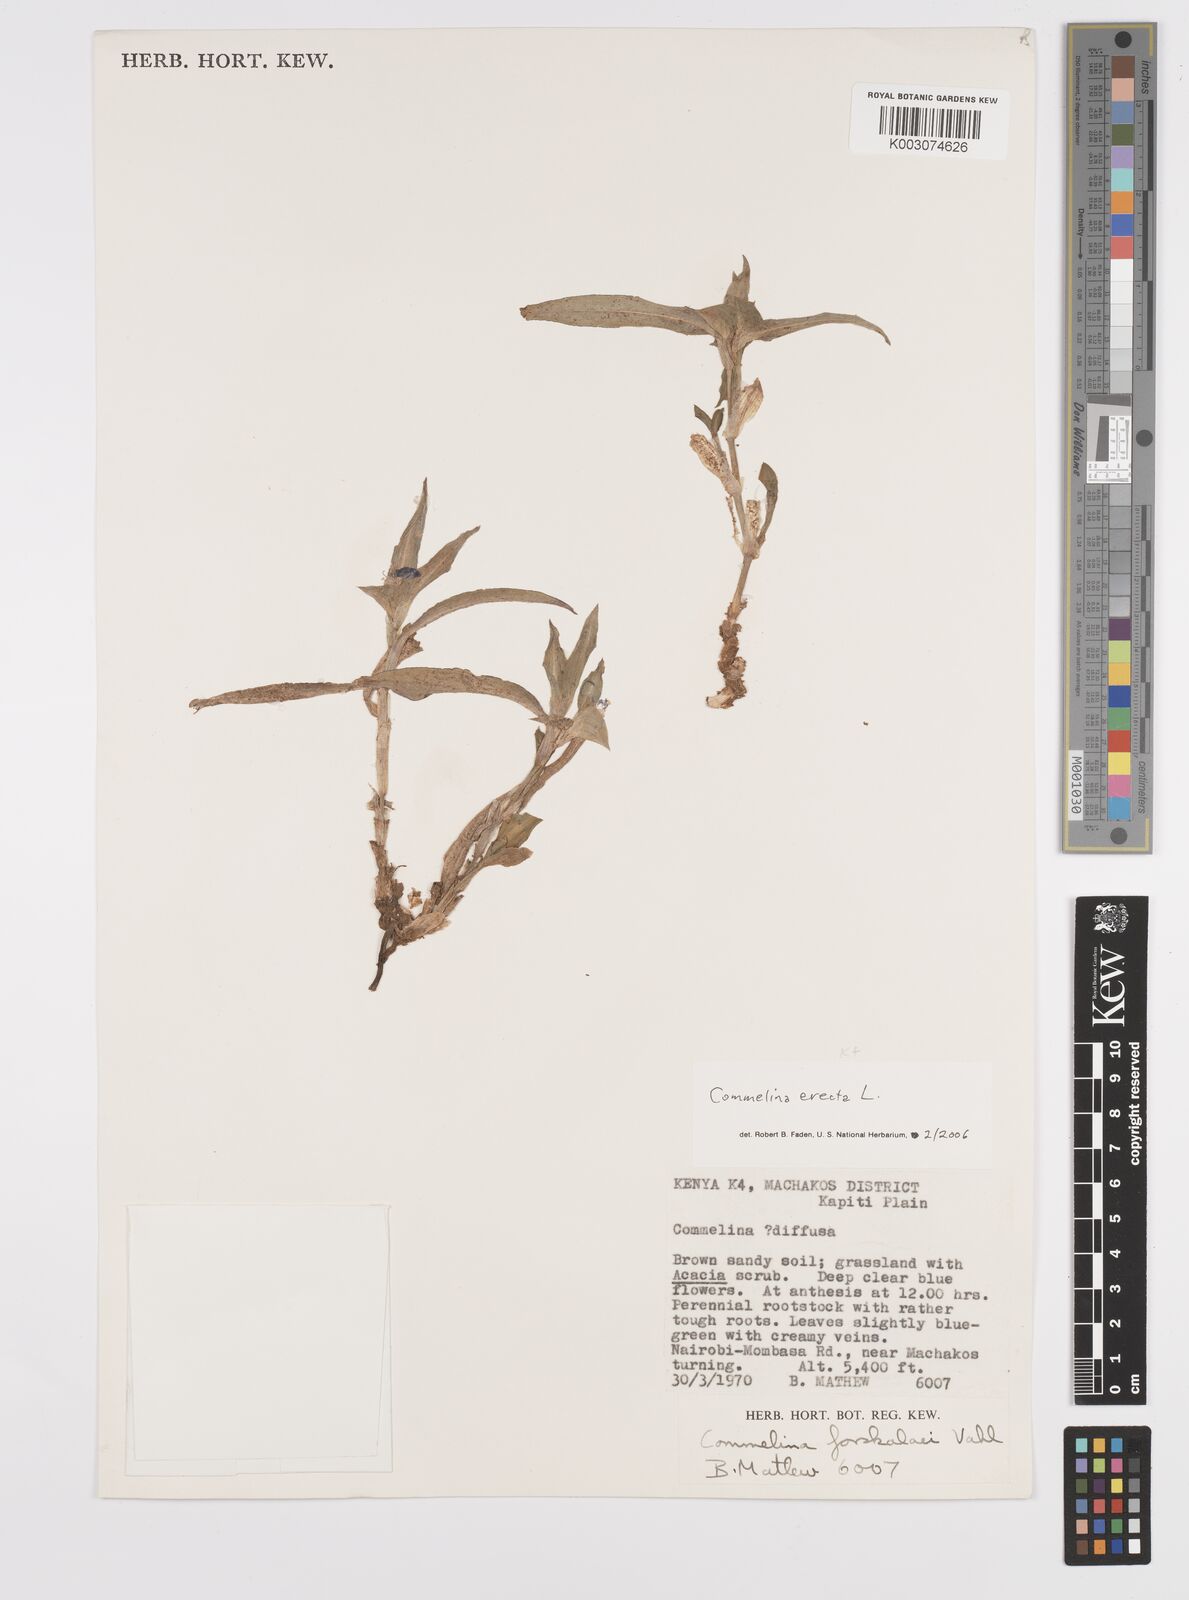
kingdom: Plantae
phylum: Tracheophyta
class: Liliopsida
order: Commelinales
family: Commelinaceae
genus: Commelina
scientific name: Commelina erecta
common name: Blousel blommetjie
